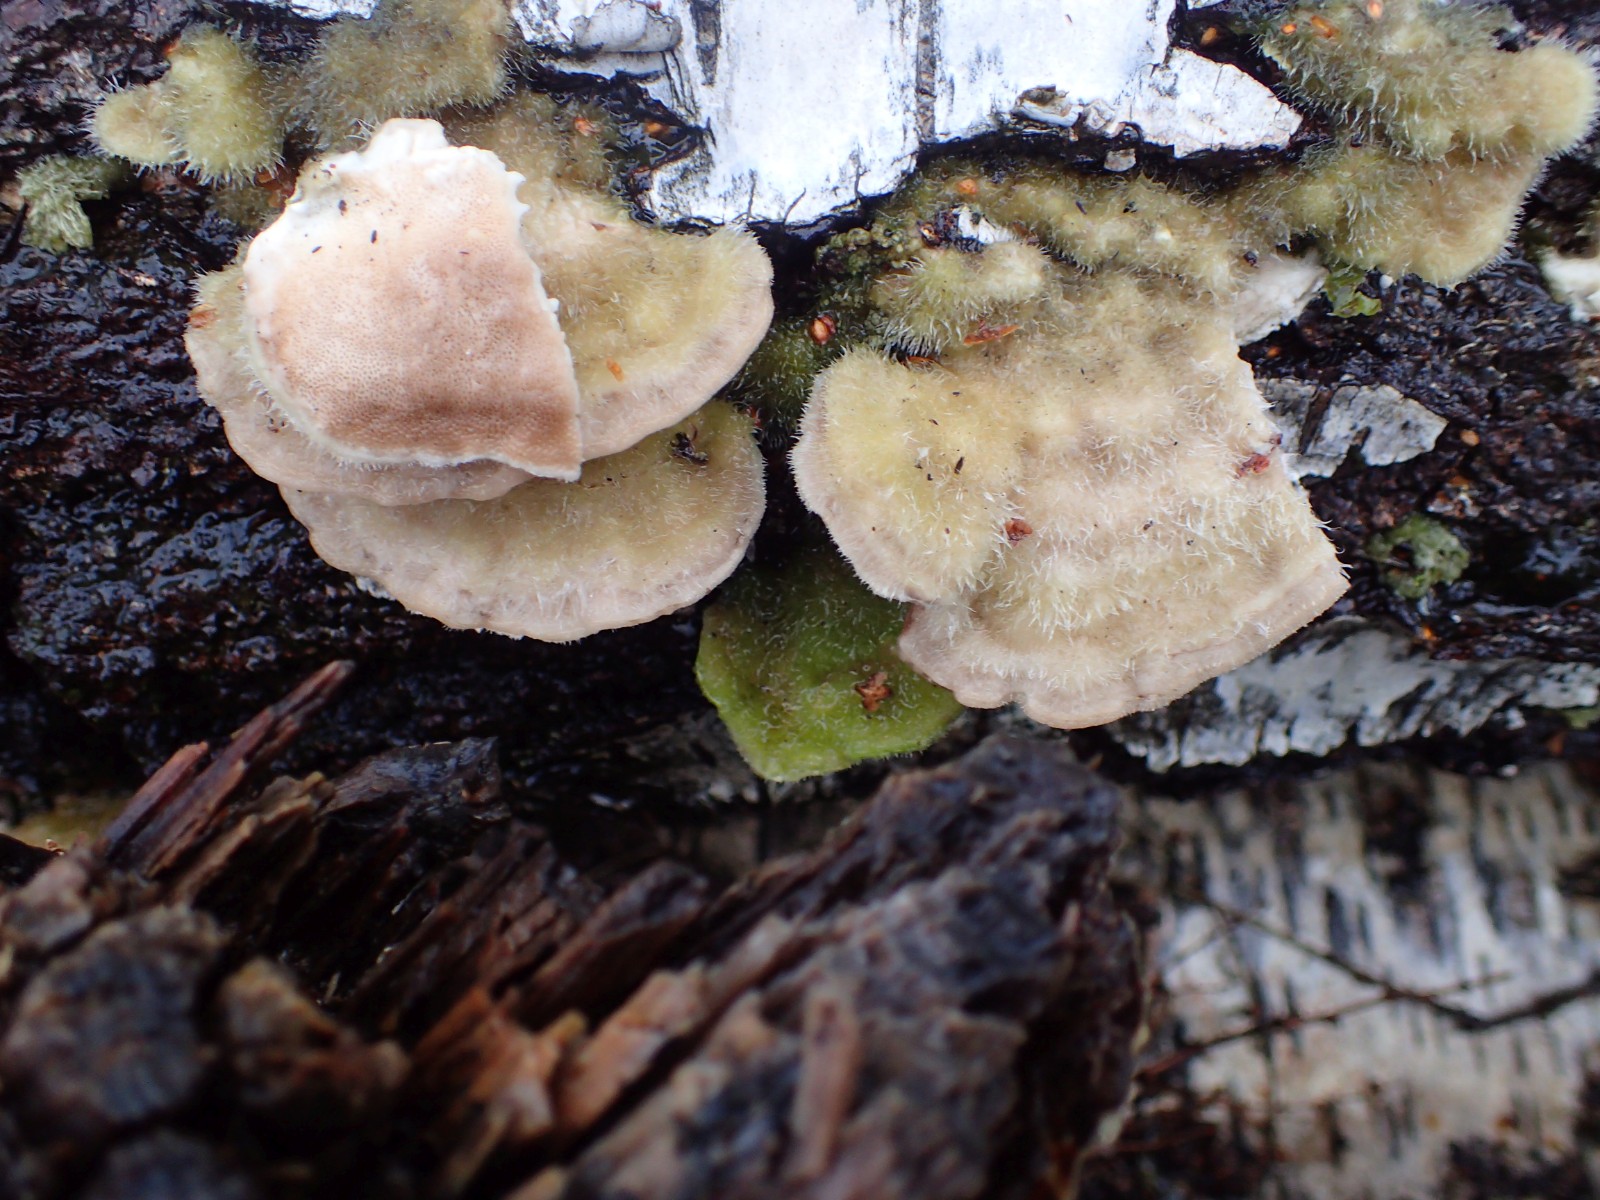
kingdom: Fungi
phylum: Basidiomycota
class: Agaricomycetes
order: Polyporales
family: Polyporaceae
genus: Trametes
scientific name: Trametes hirsuta
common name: håret læderporesvamp
